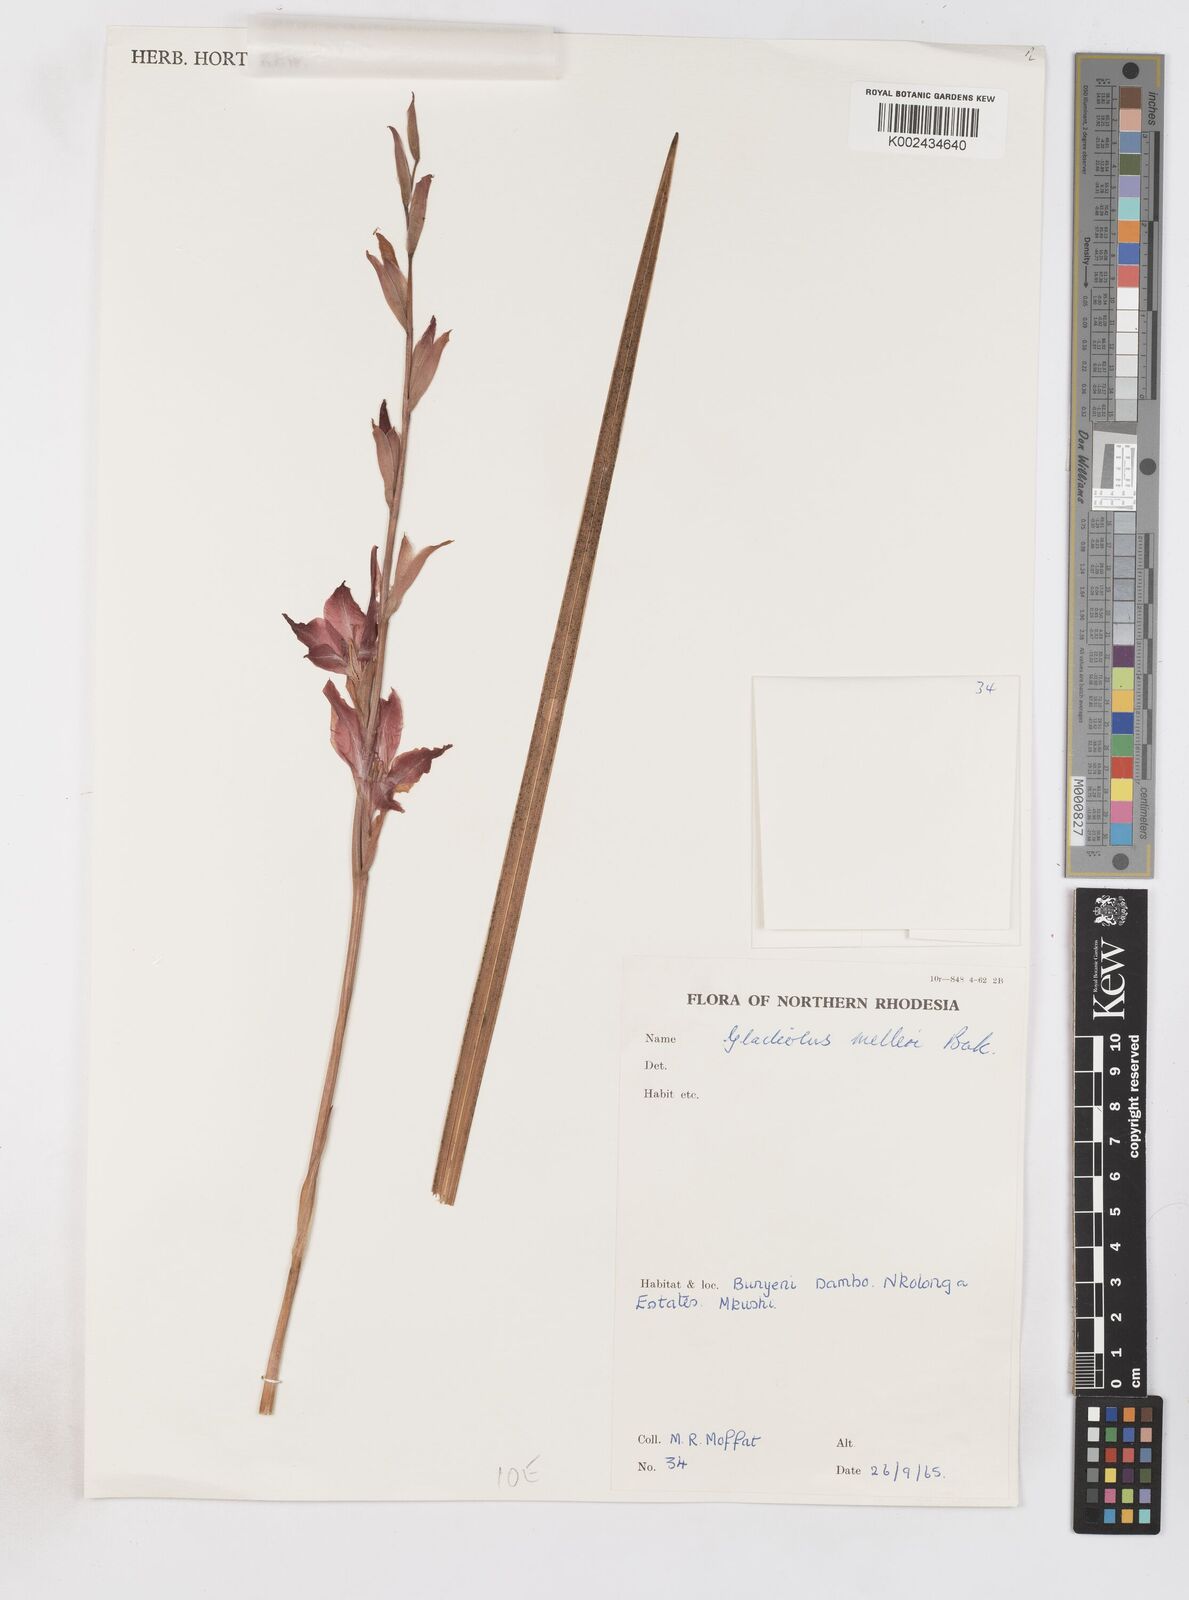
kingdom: Plantae
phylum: Tracheophyta
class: Liliopsida
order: Asparagales
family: Iridaceae
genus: Gladiolus
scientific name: Gladiolus melleri
